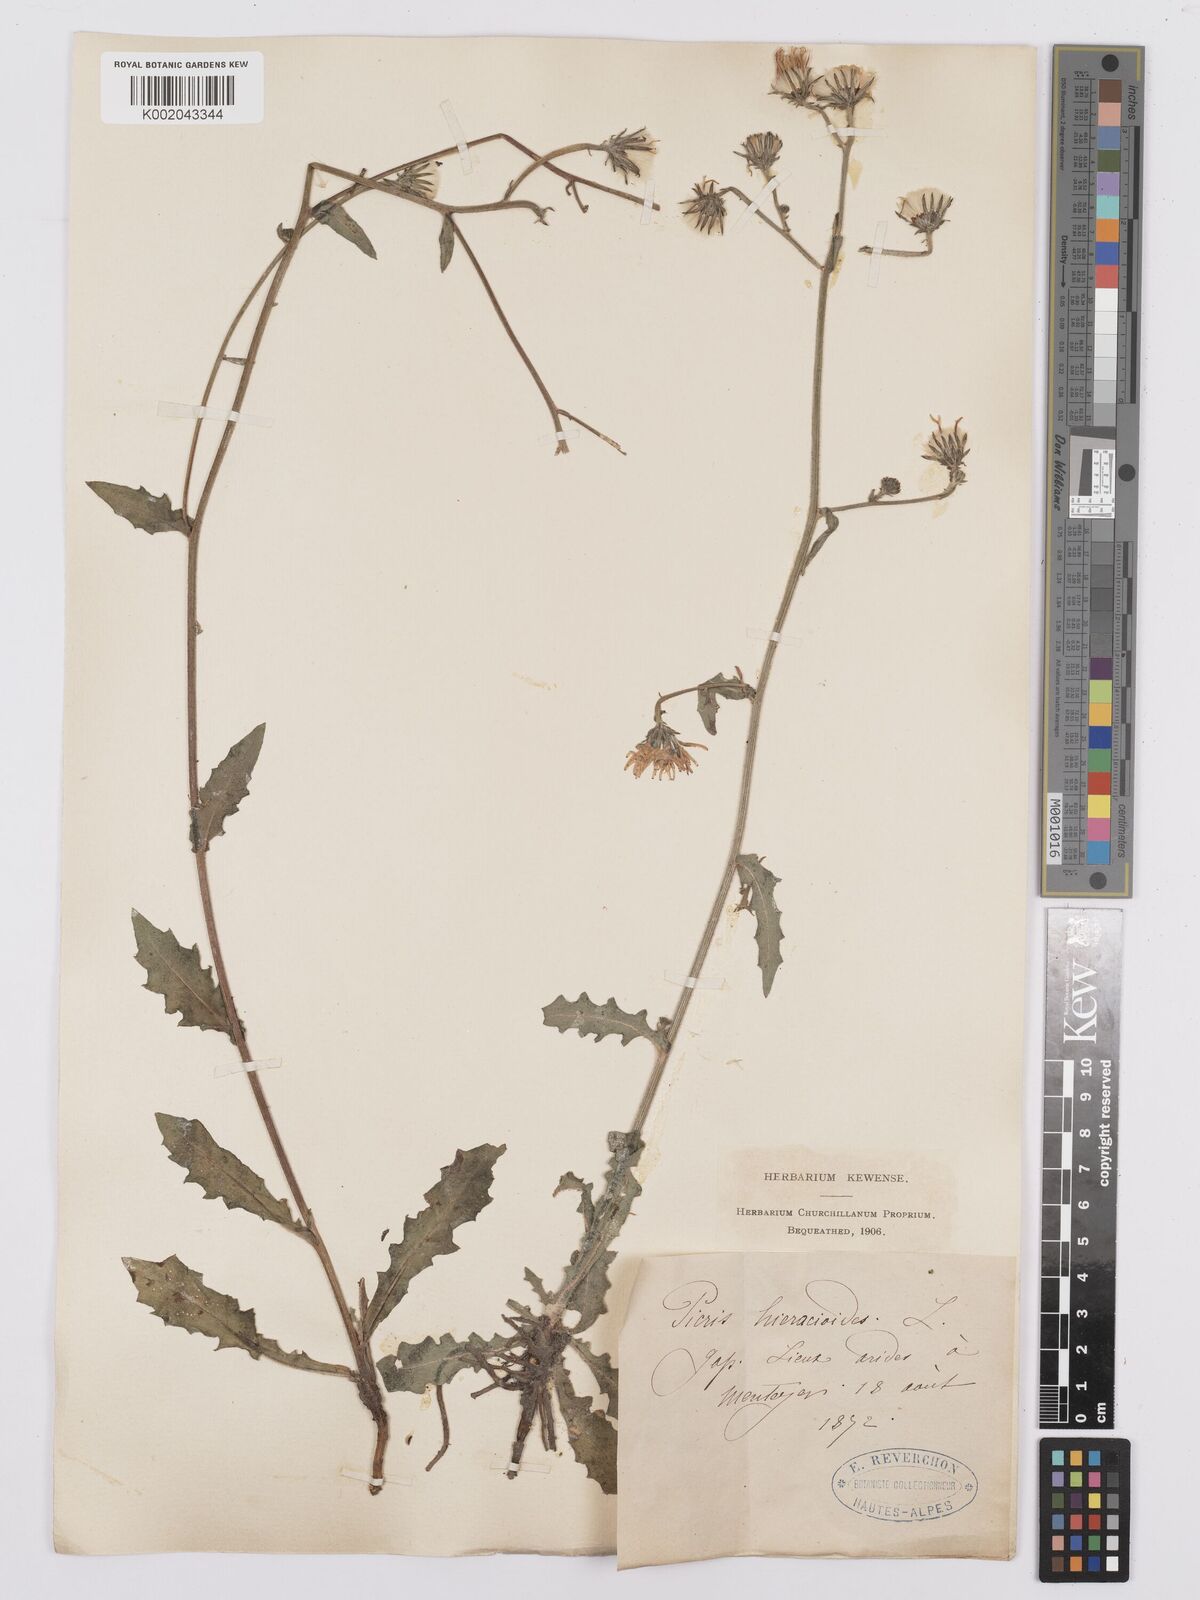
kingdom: Plantae
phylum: Tracheophyta
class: Magnoliopsida
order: Asterales
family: Asteraceae
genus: Picris
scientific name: Picris hieracioides
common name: Hawkweed oxtongue
